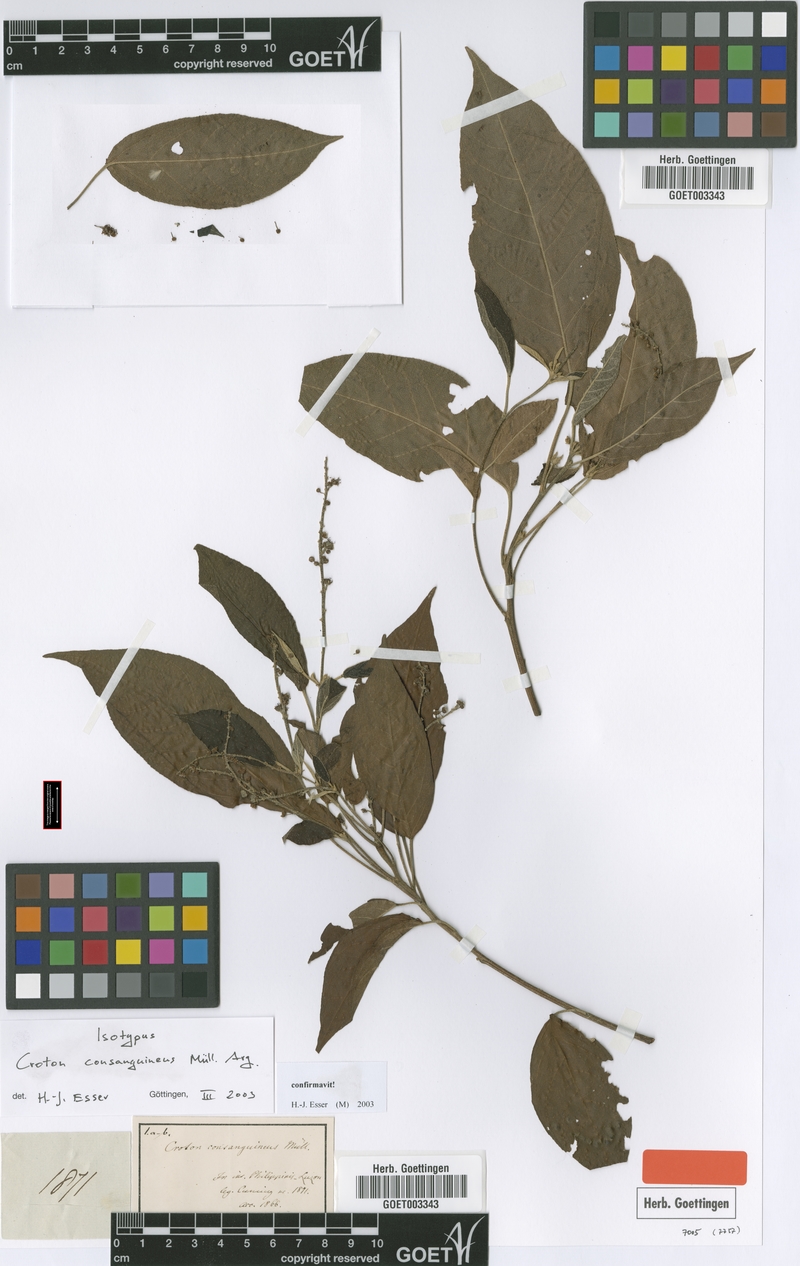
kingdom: Plantae
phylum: Tracheophyta
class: Magnoliopsida
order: Malpighiales
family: Euphorbiaceae
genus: Croton
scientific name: Croton consanguineus
